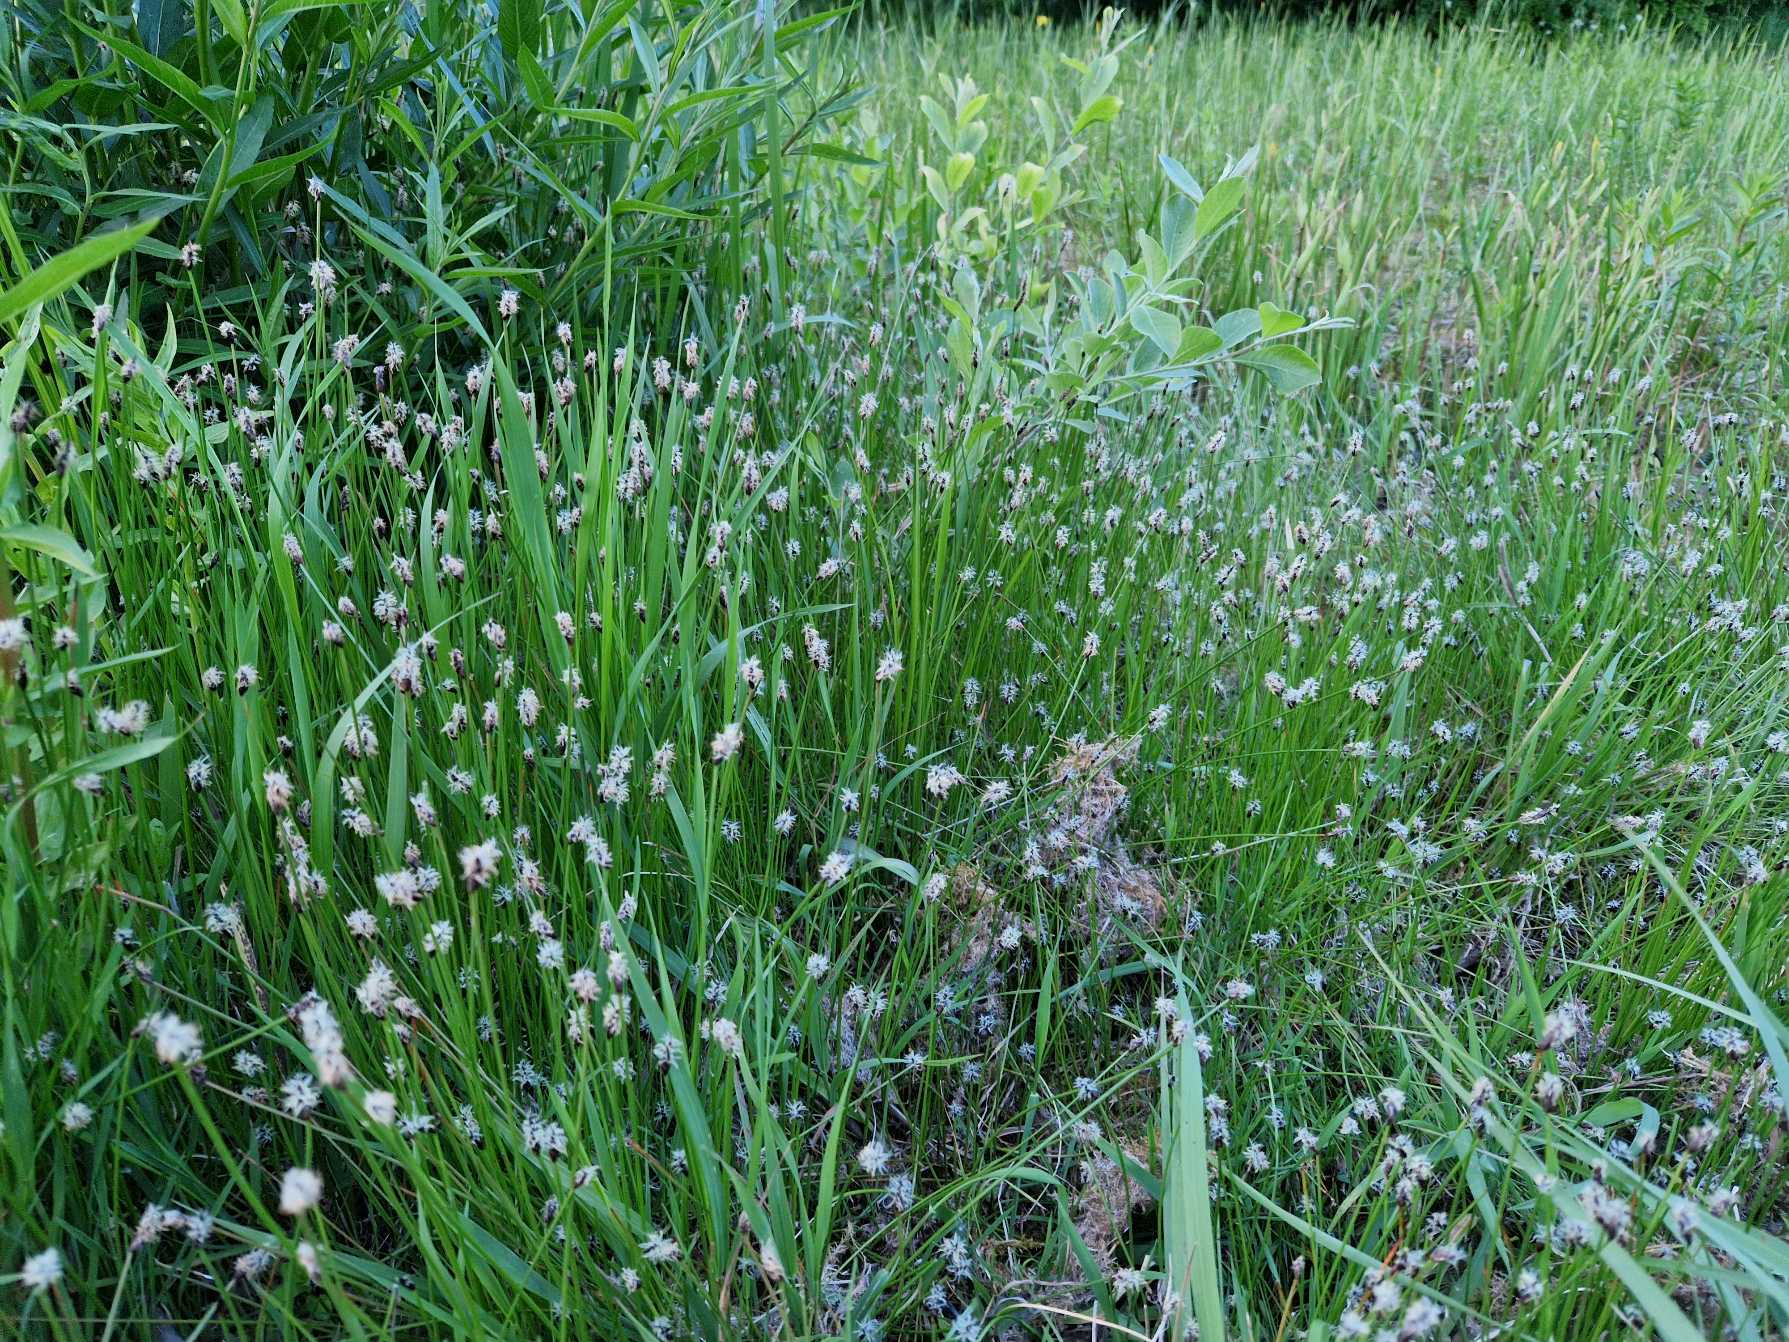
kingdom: Plantae
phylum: Tracheophyta
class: Liliopsida
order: Poales
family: Cyperaceae
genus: Eleocharis
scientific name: Eleocharis uniglumis
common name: Enskællet sumpstrå
